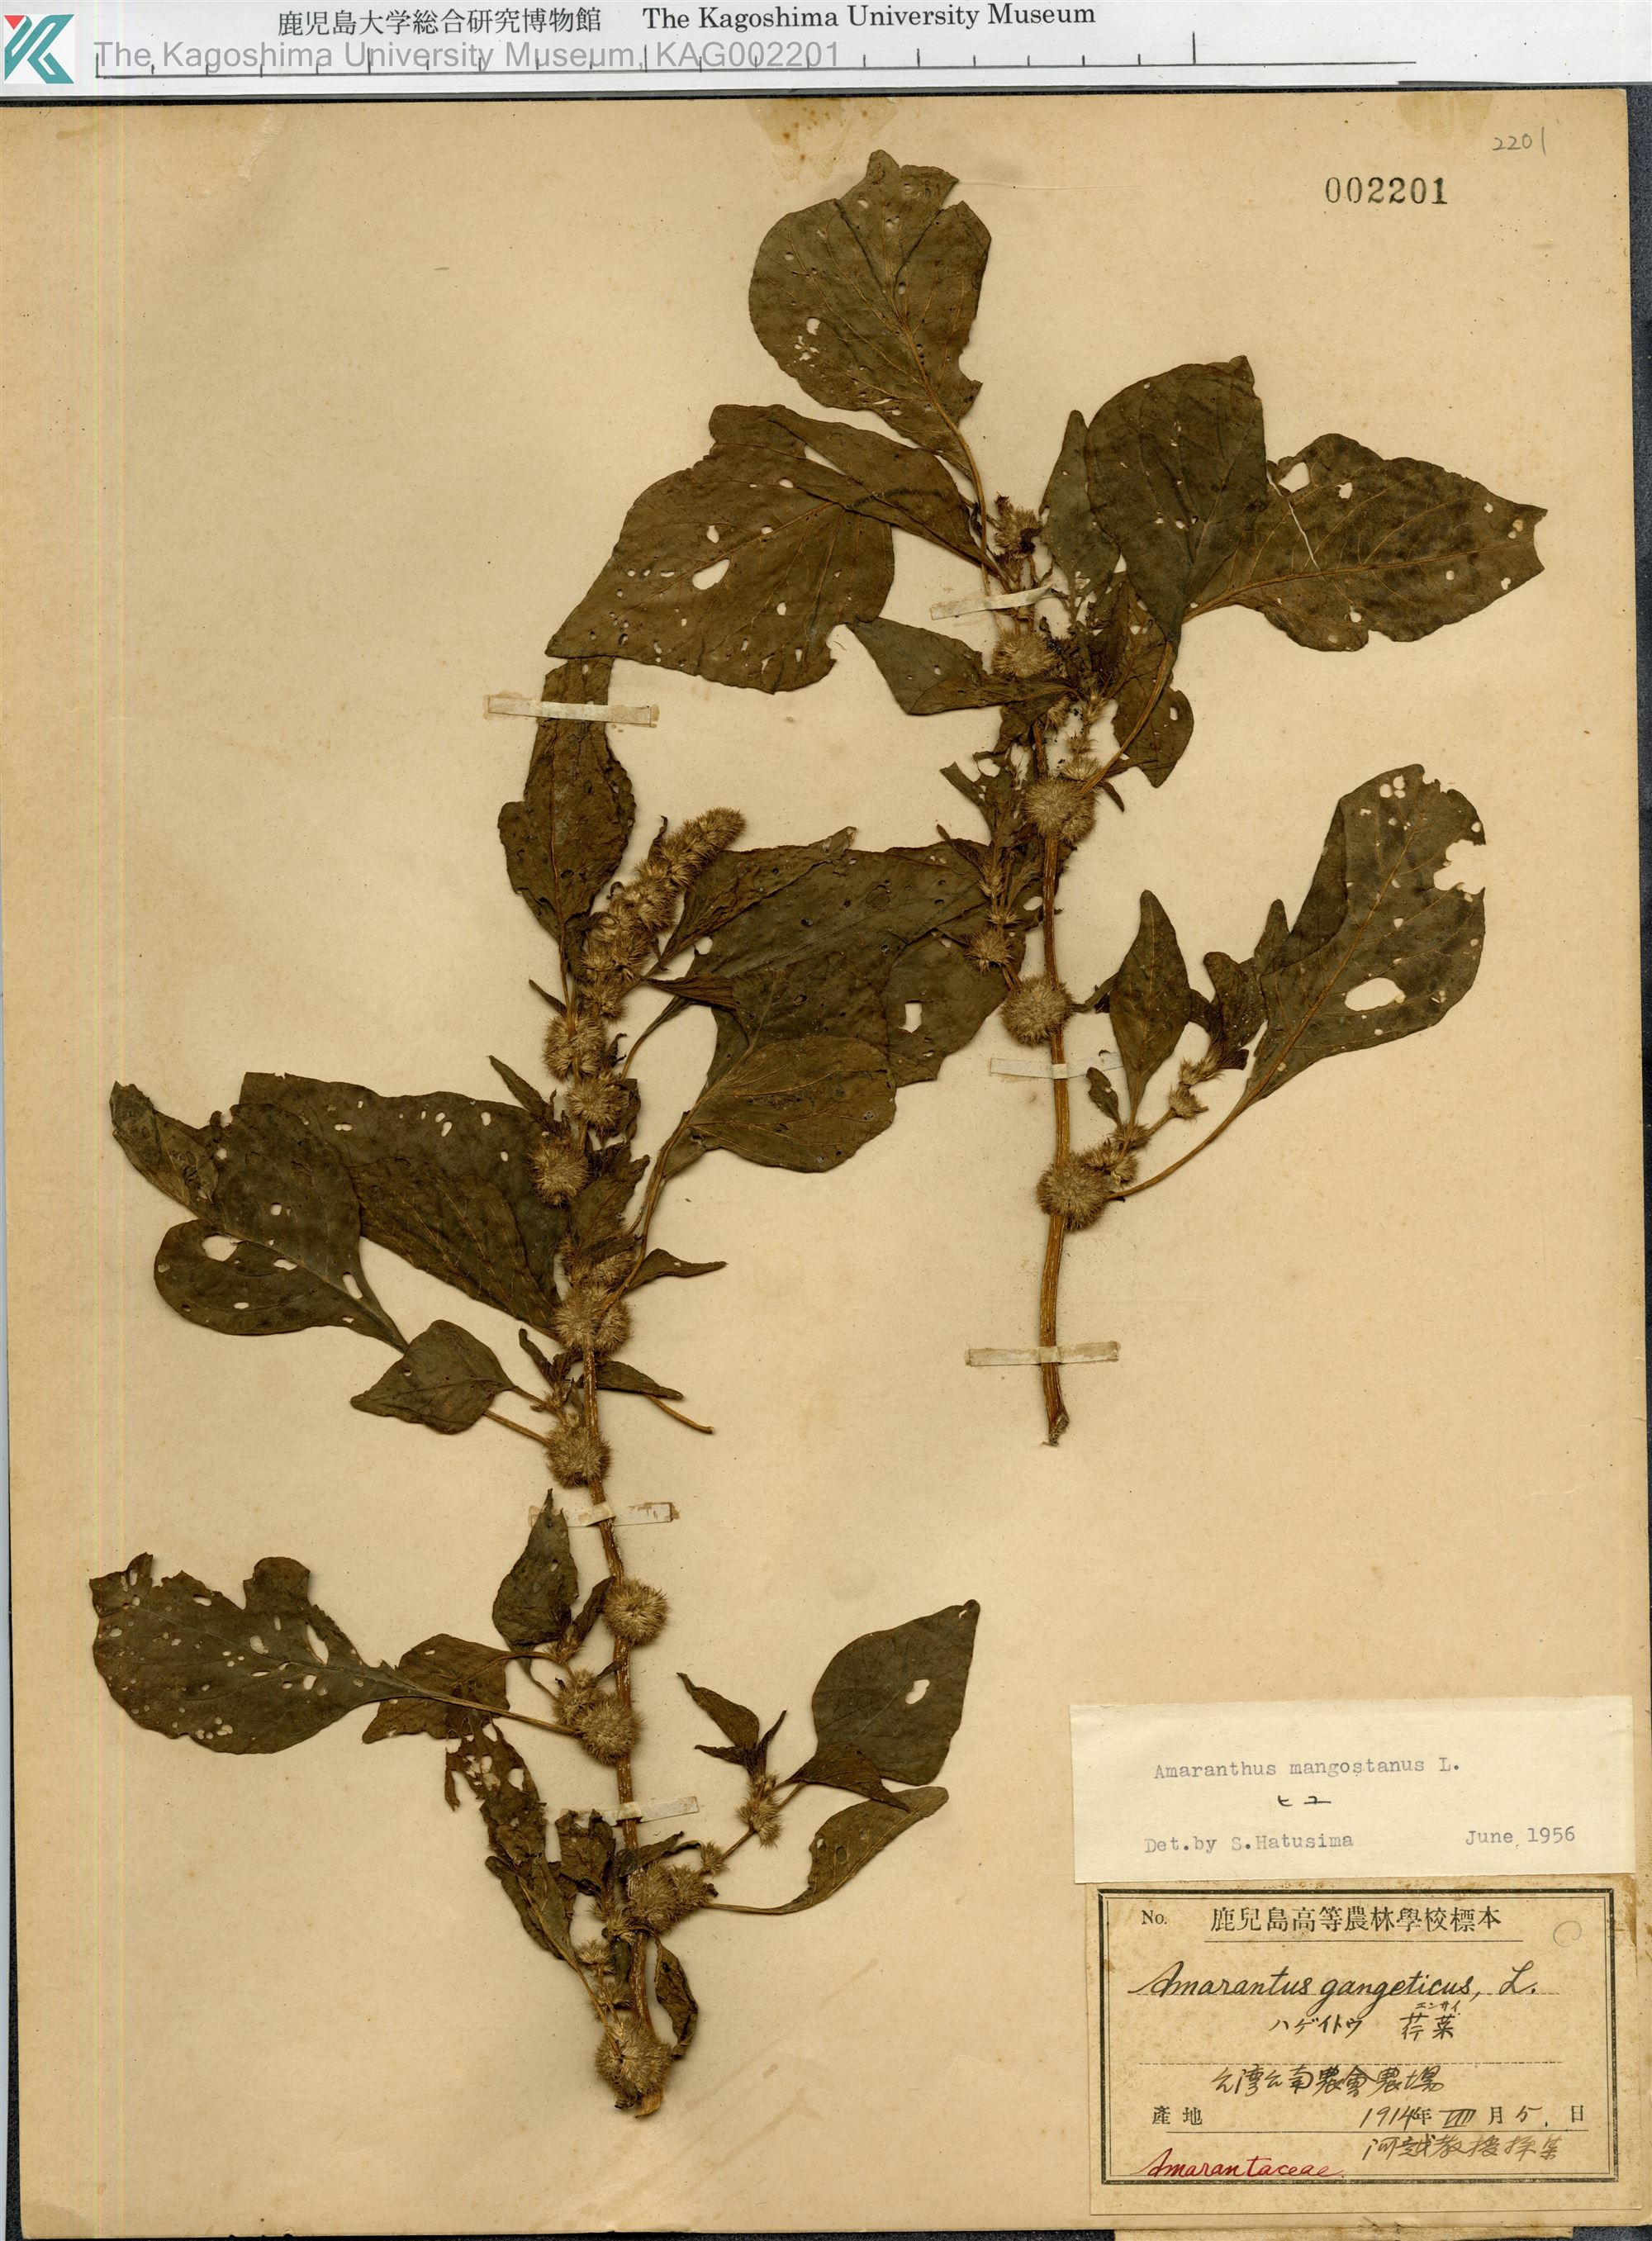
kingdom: Plantae
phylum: Tracheophyta
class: Magnoliopsida
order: Caryophyllales
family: Amaranthaceae
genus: Amaranthus
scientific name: Amaranthus tricolor
